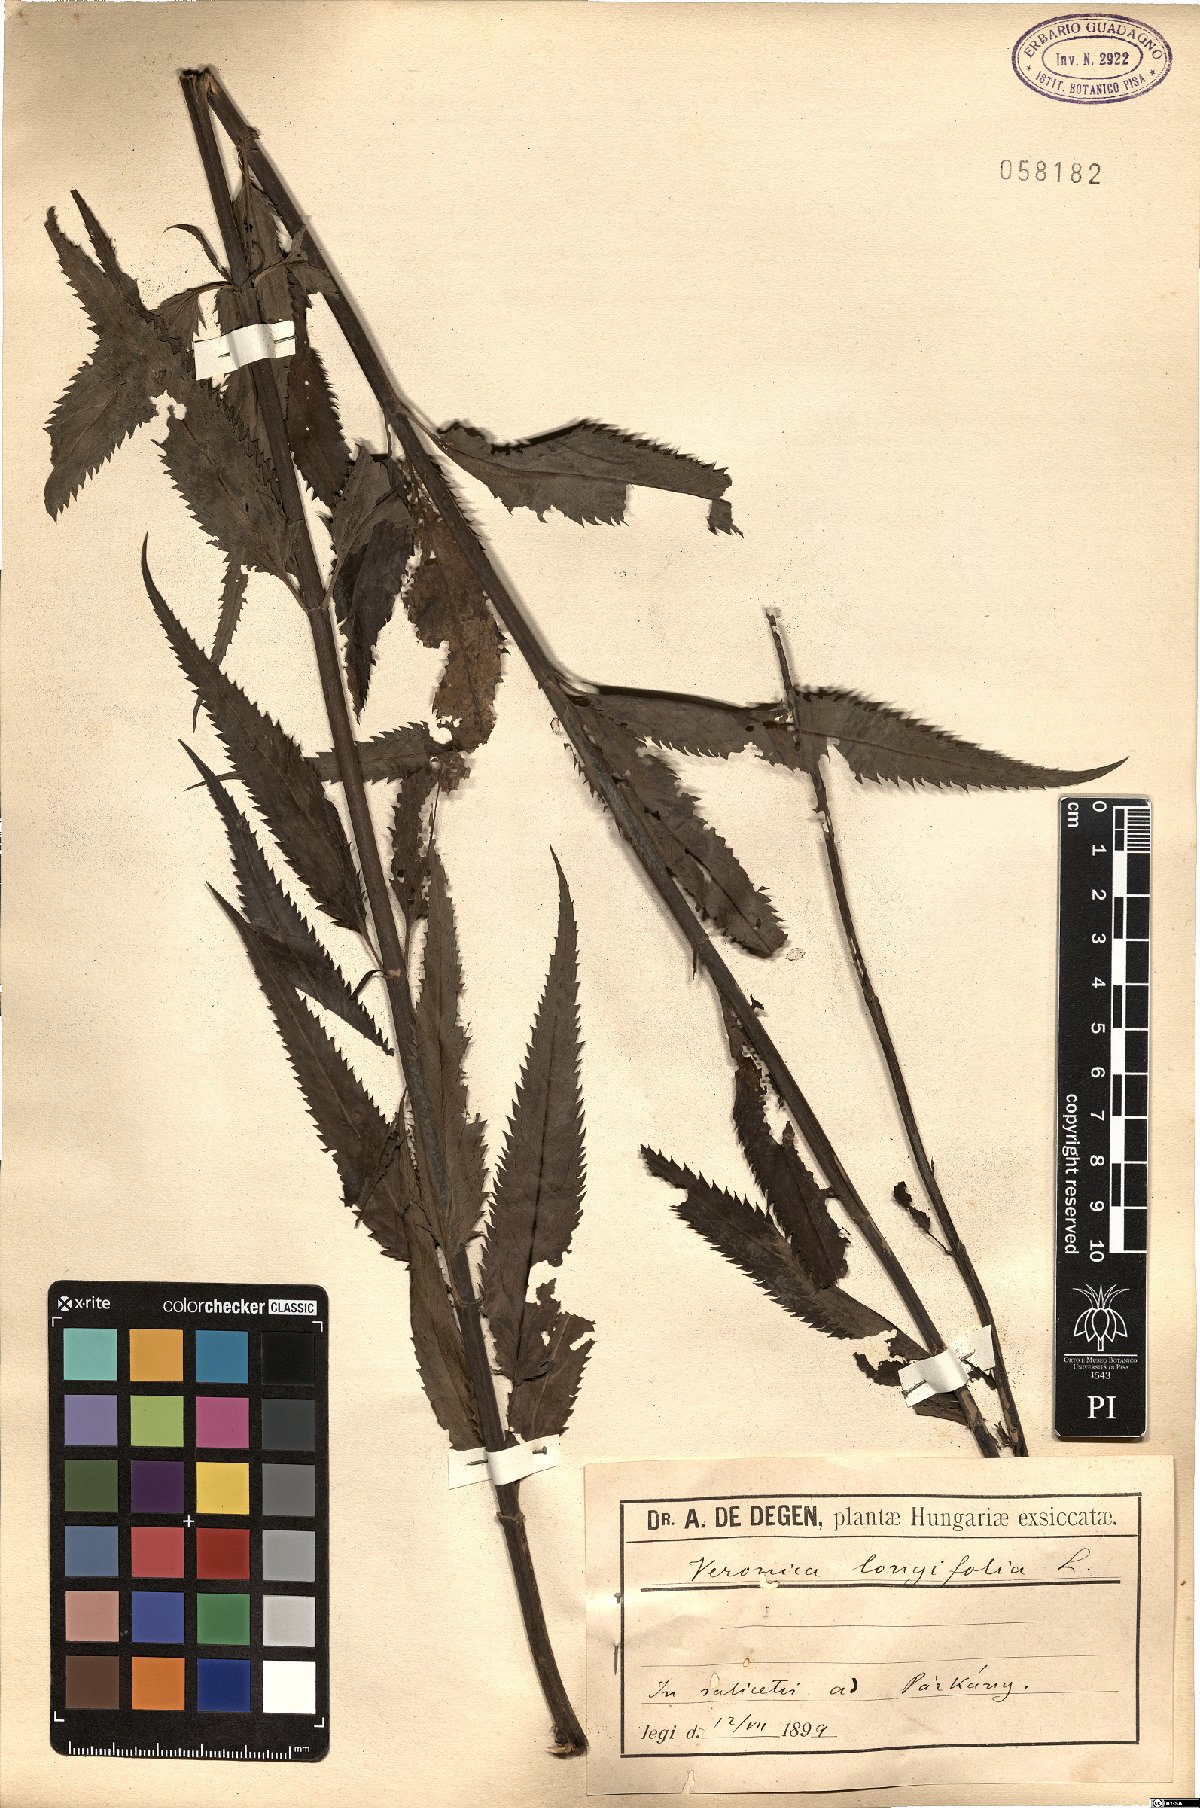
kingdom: Plantae
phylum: Tracheophyta
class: Magnoliopsida
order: Lamiales
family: Plantaginaceae
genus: Veronica
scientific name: Veronica longifolia
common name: Garden speedwell
